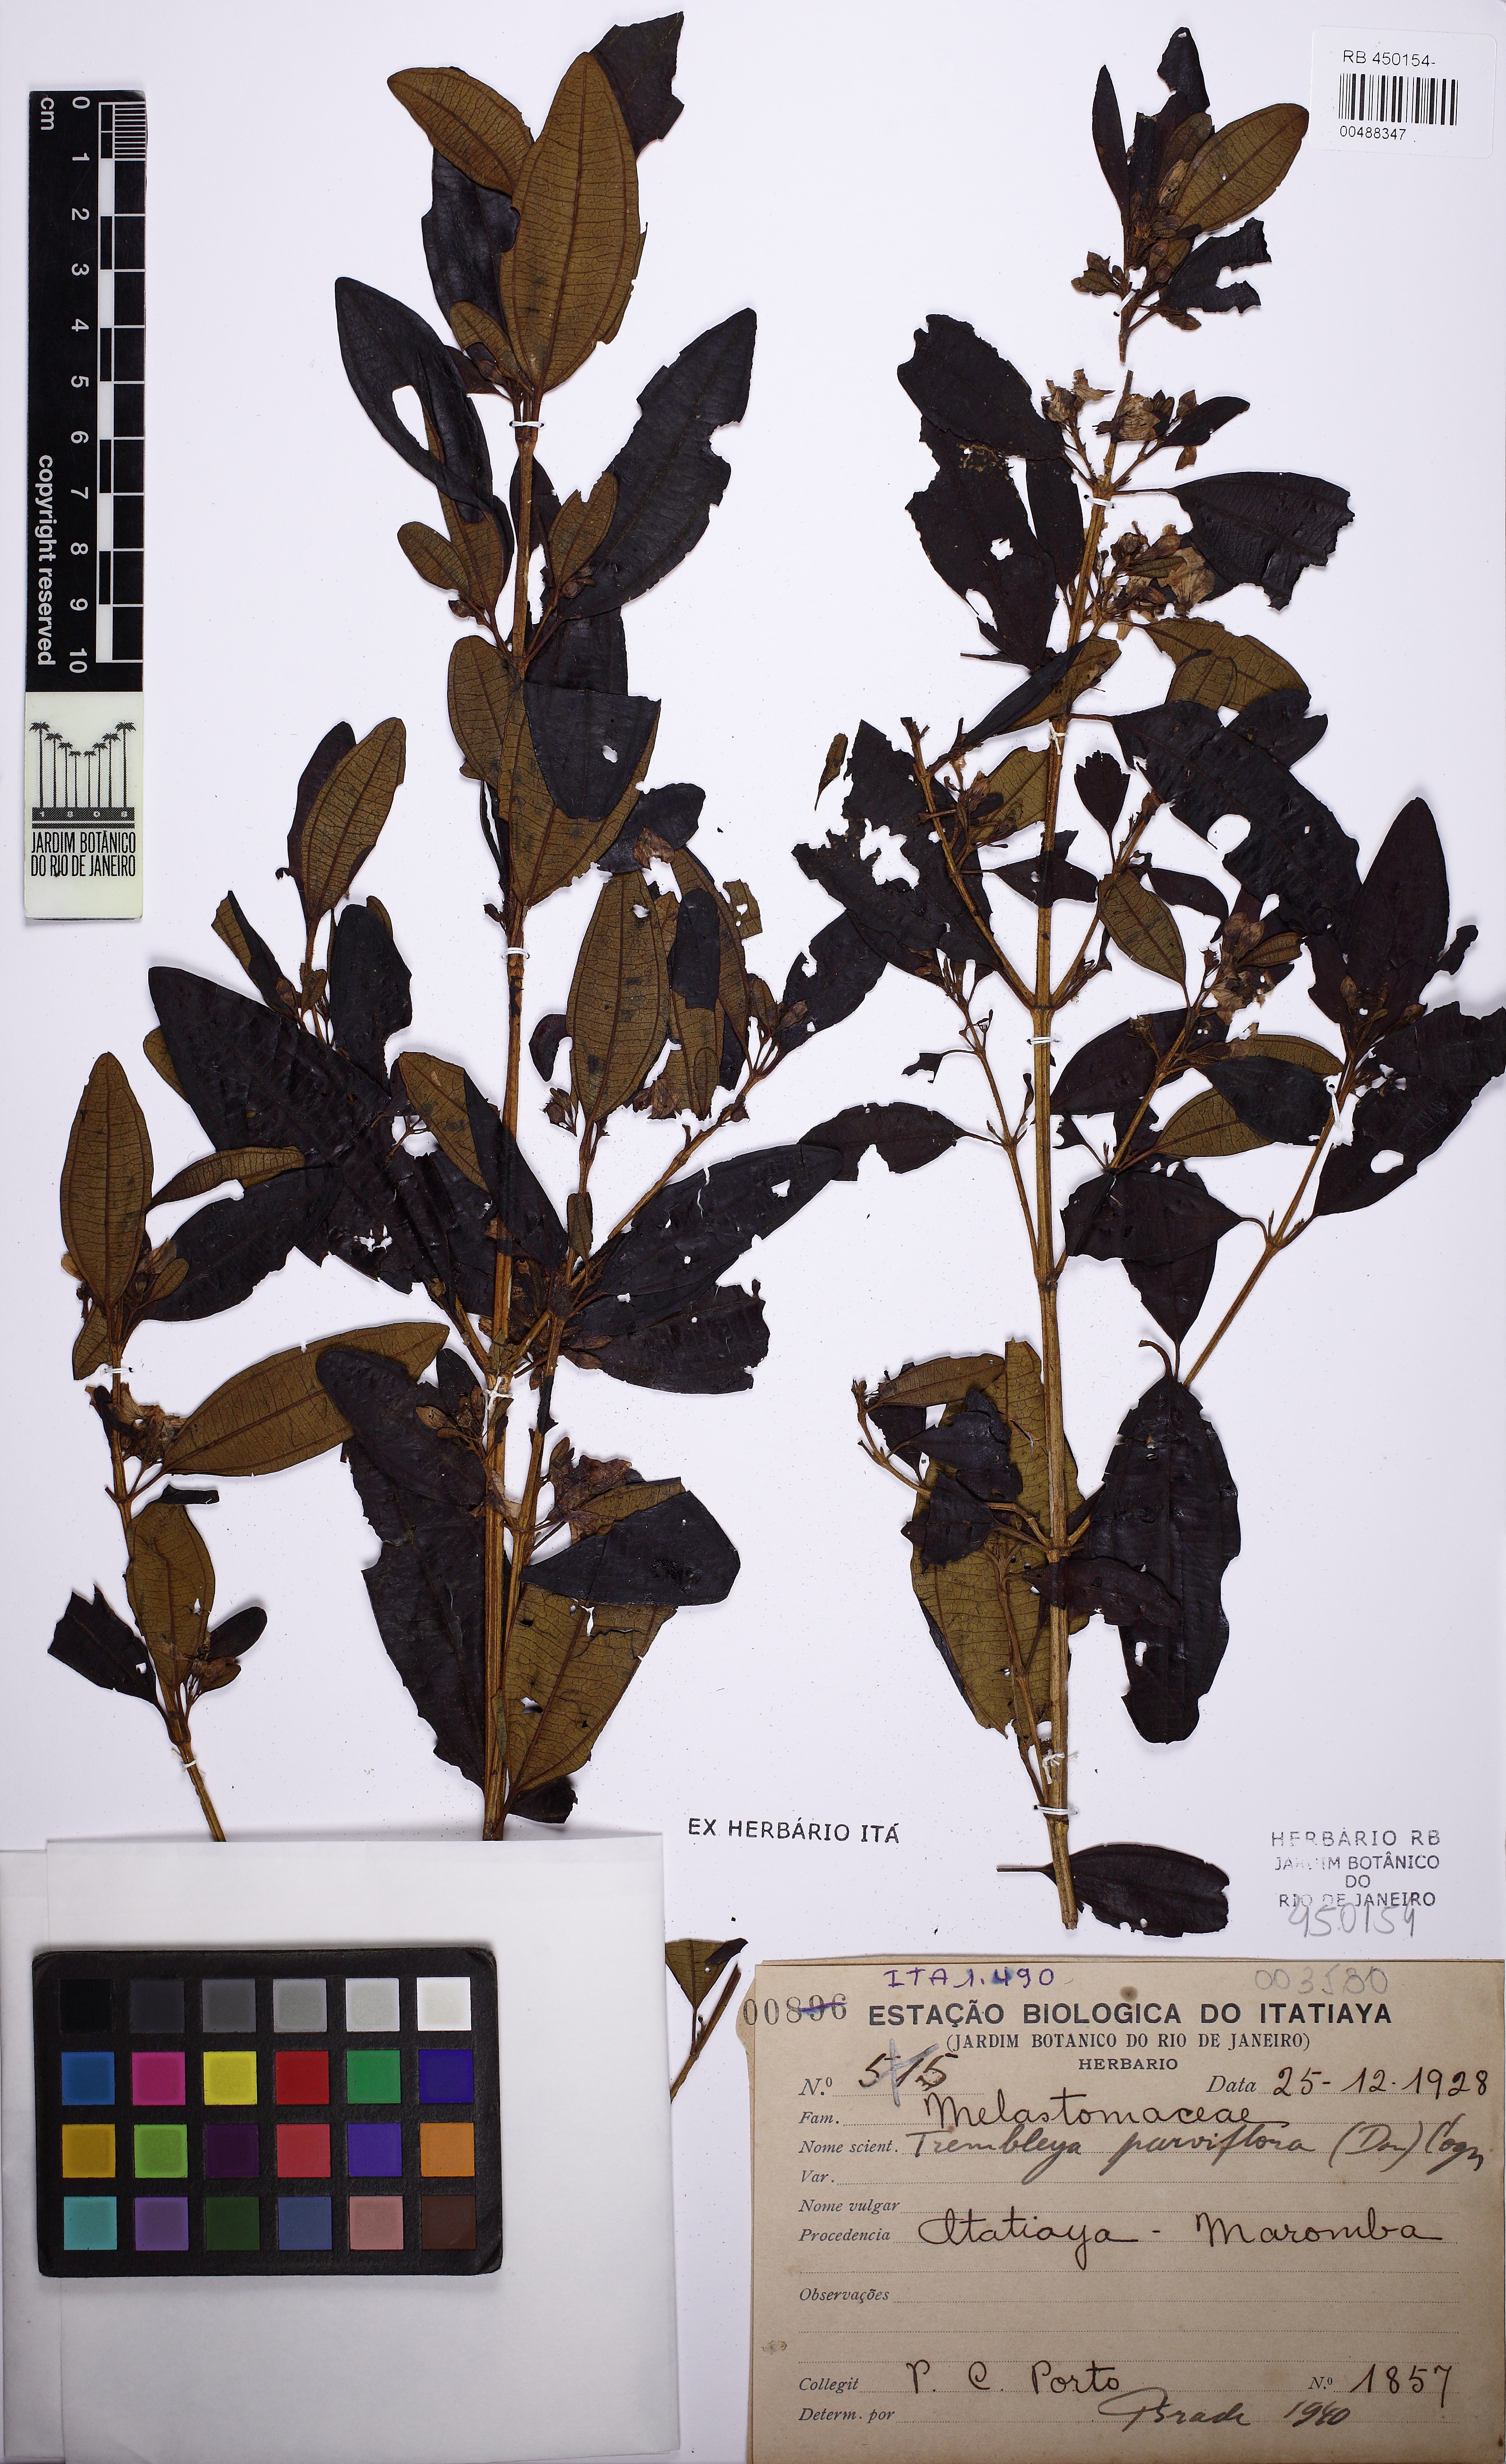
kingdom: Plantae
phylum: Tracheophyta
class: Magnoliopsida
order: Myrtales
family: Melastomataceae
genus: Microlicia
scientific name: Microlicia parviflora
